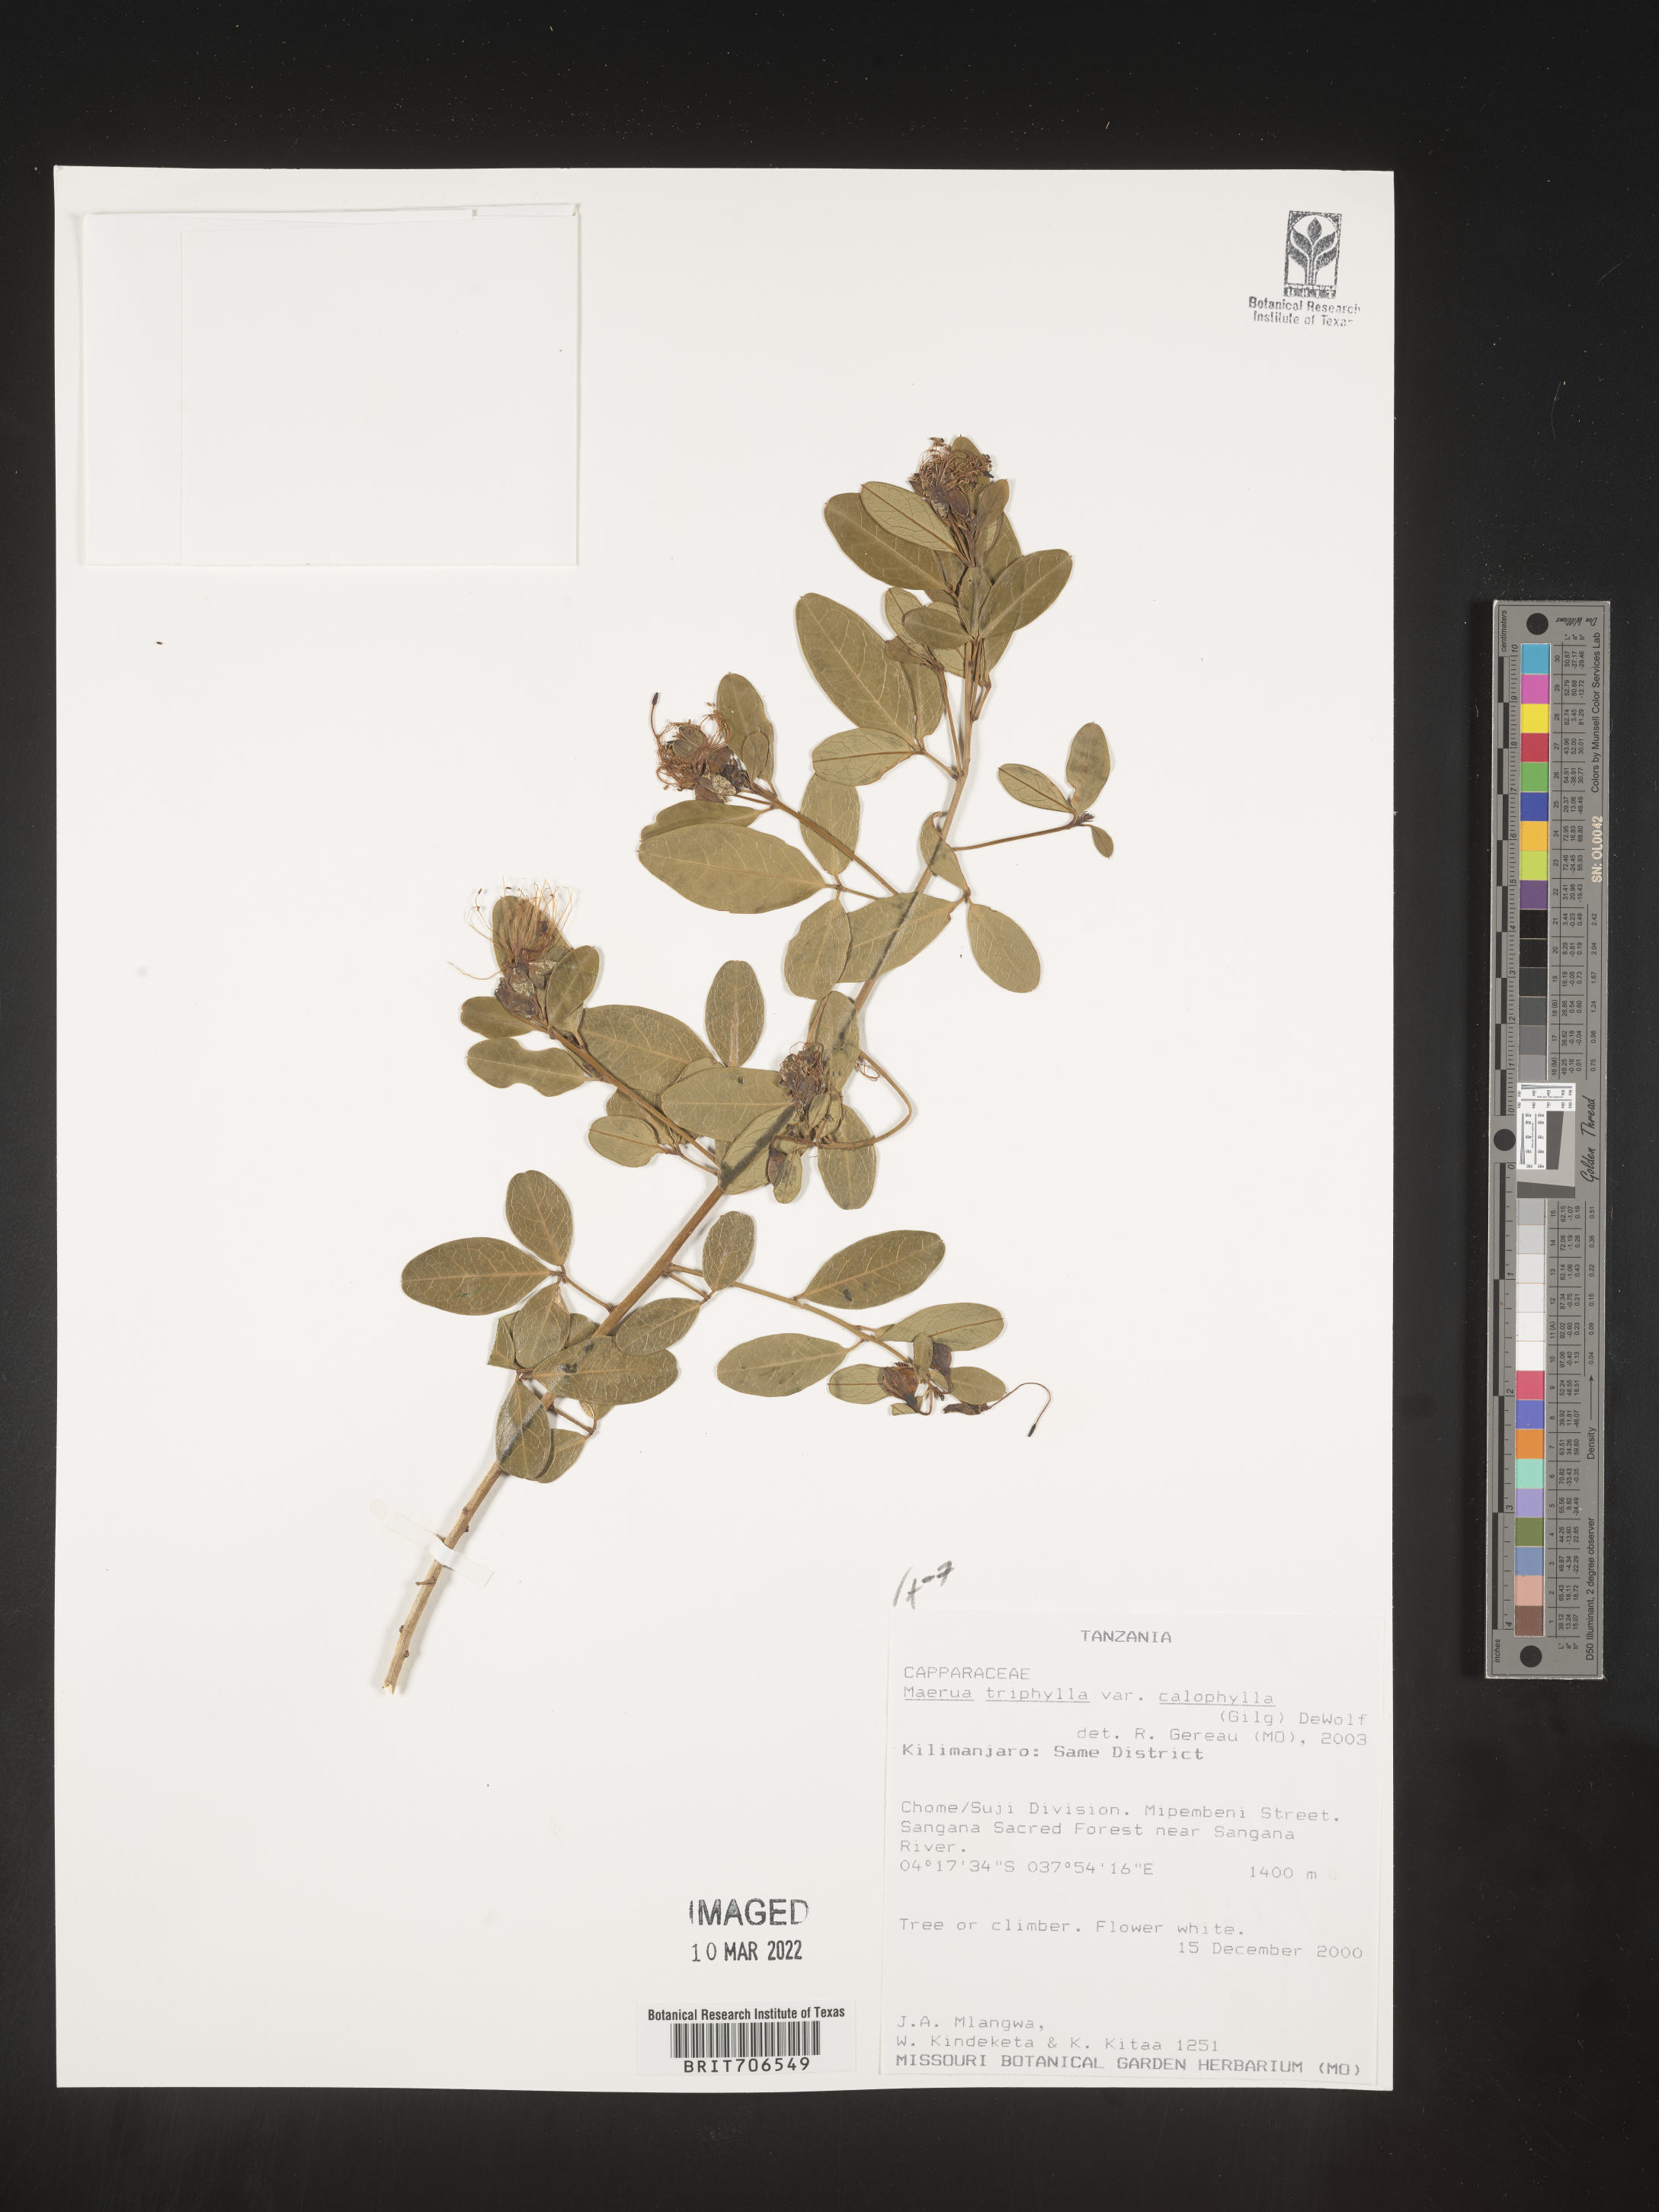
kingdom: Plantae
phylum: Tracheophyta
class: Magnoliopsida
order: Brassicales
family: Capparaceae
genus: Maerua
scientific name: Maerua
